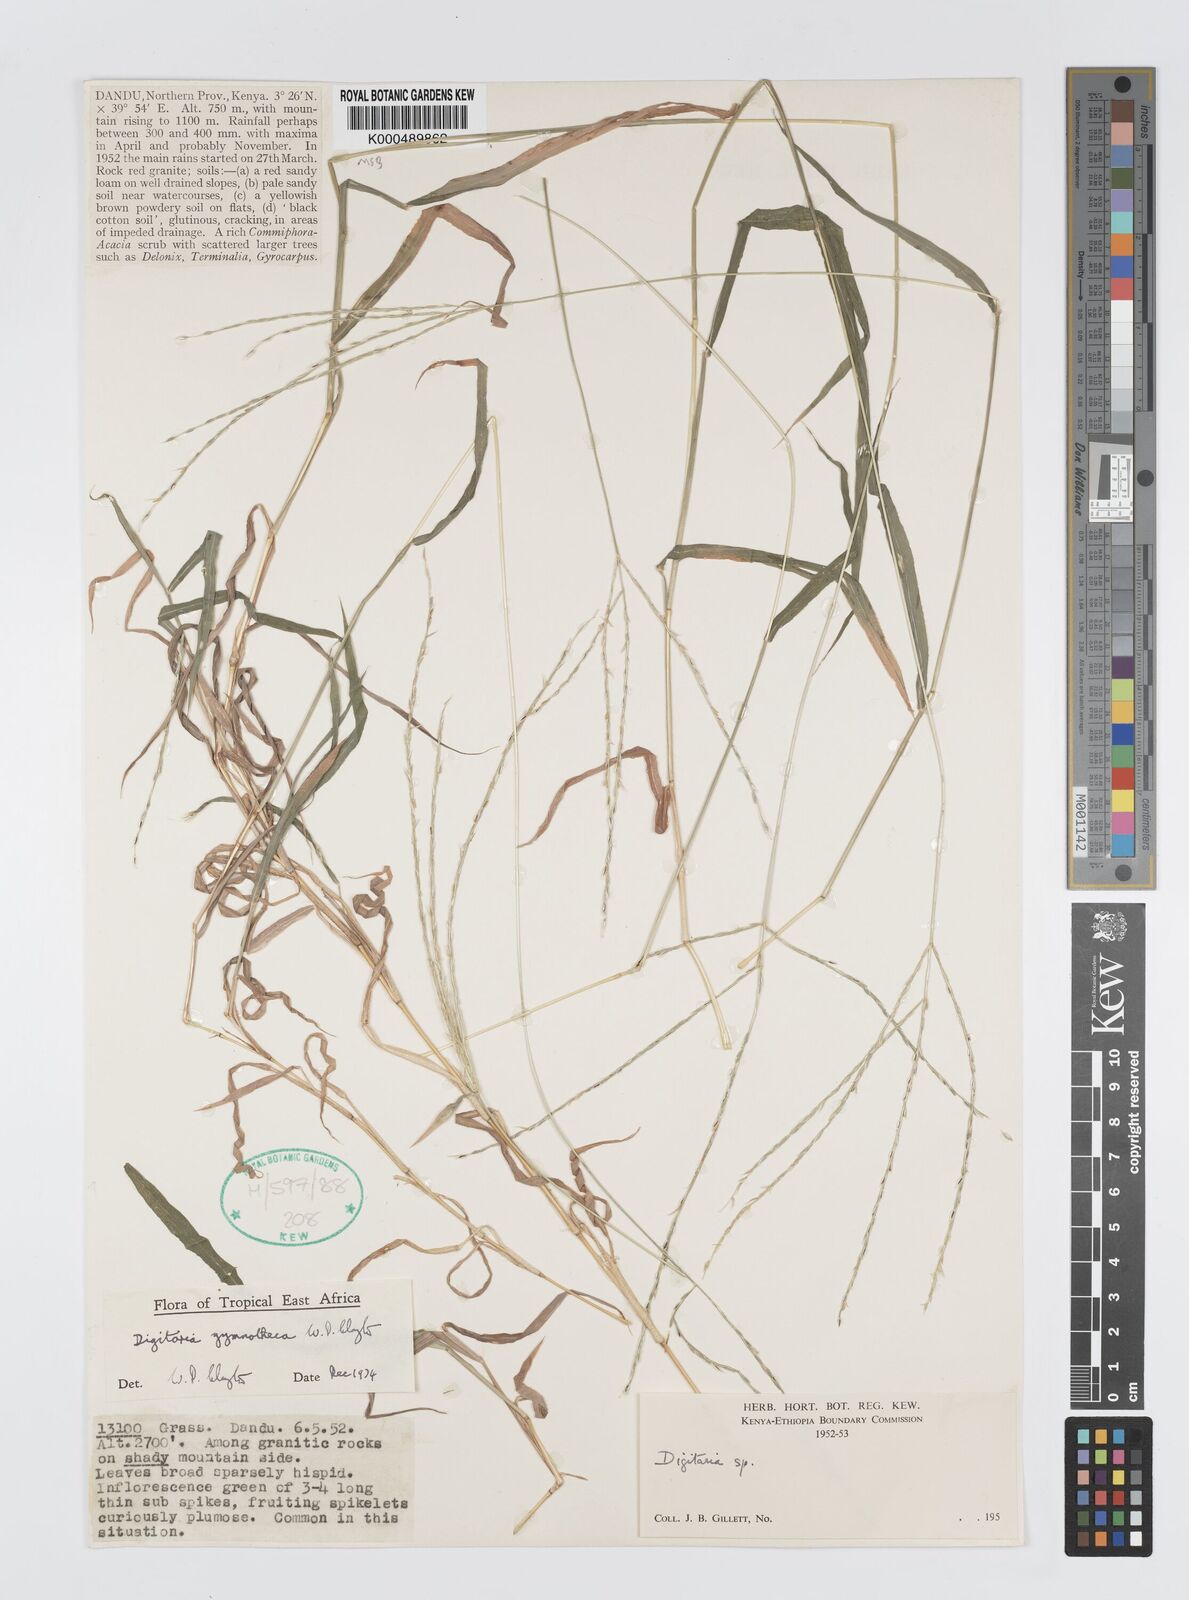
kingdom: Plantae
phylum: Tracheophyta
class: Liliopsida
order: Poales
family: Poaceae
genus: Digitaria
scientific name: Digitaria gymnotheca
